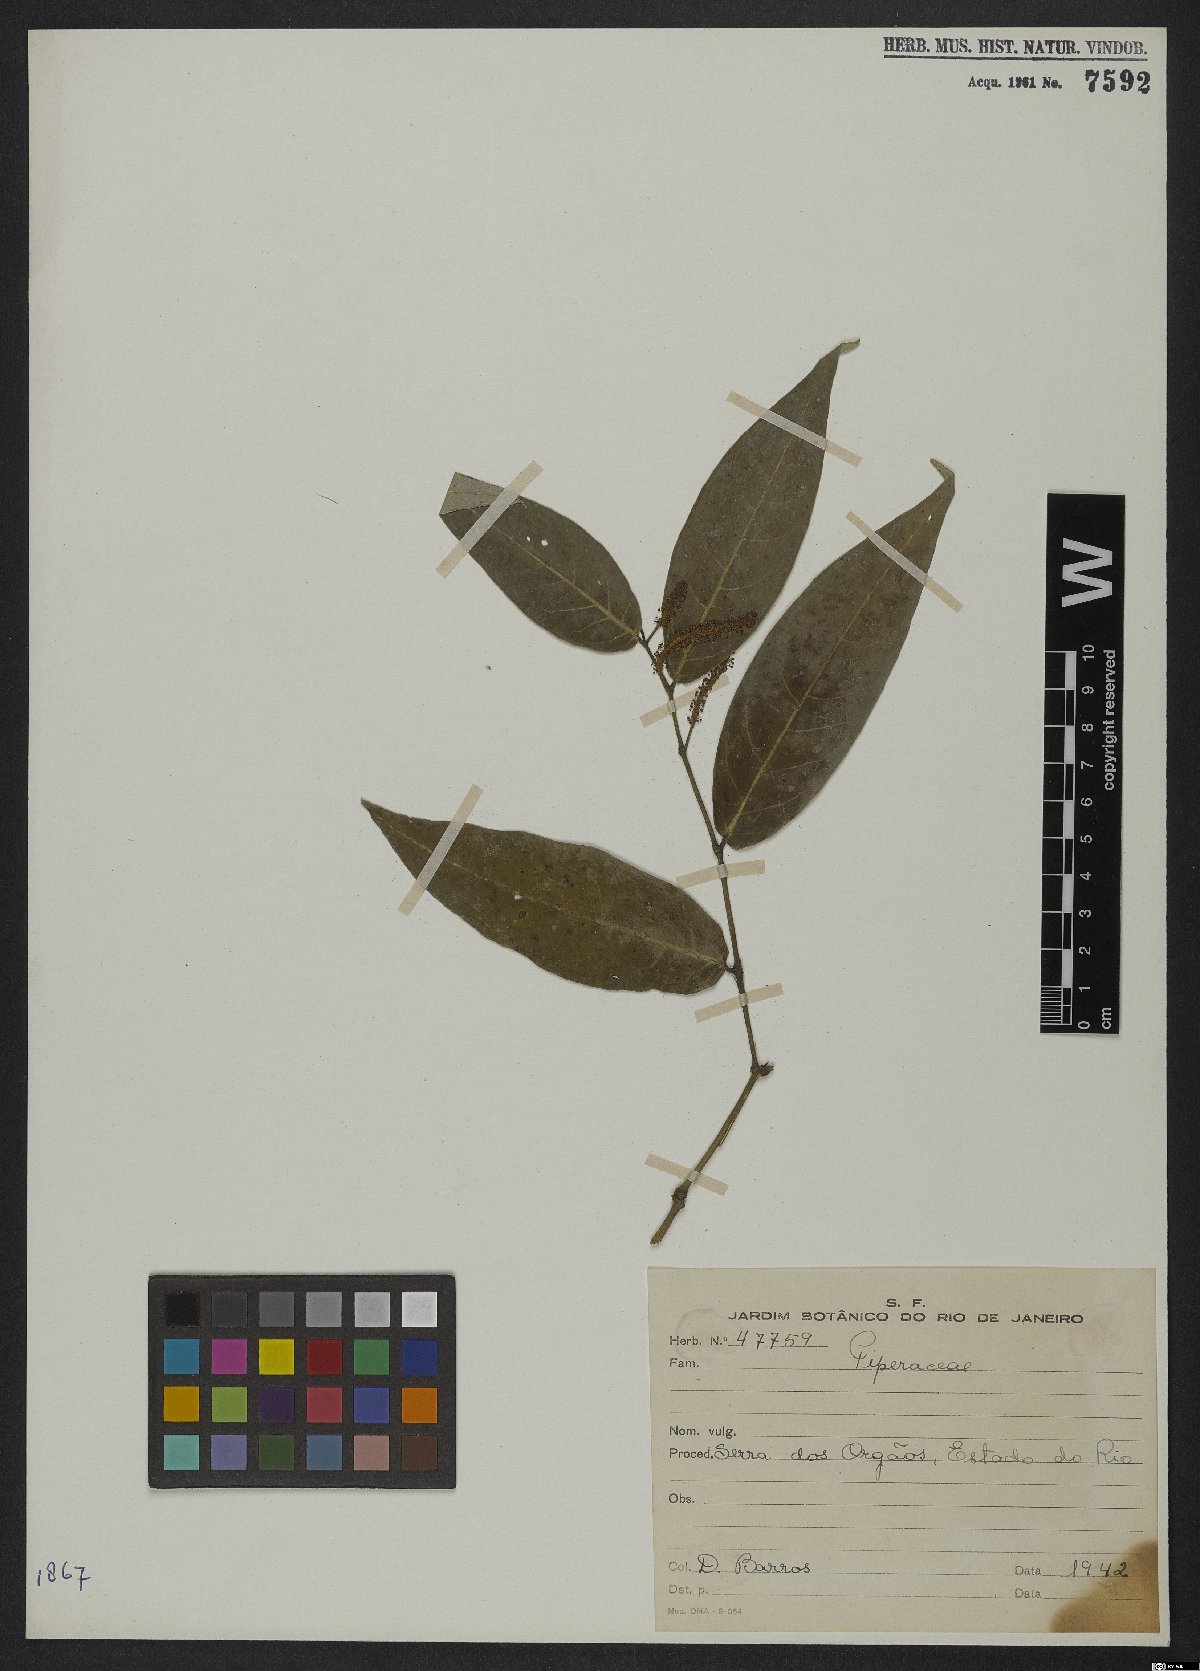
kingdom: Plantae
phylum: Tracheophyta
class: Magnoliopsida
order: Piperales
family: Piperaceae
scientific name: Piperaceae
